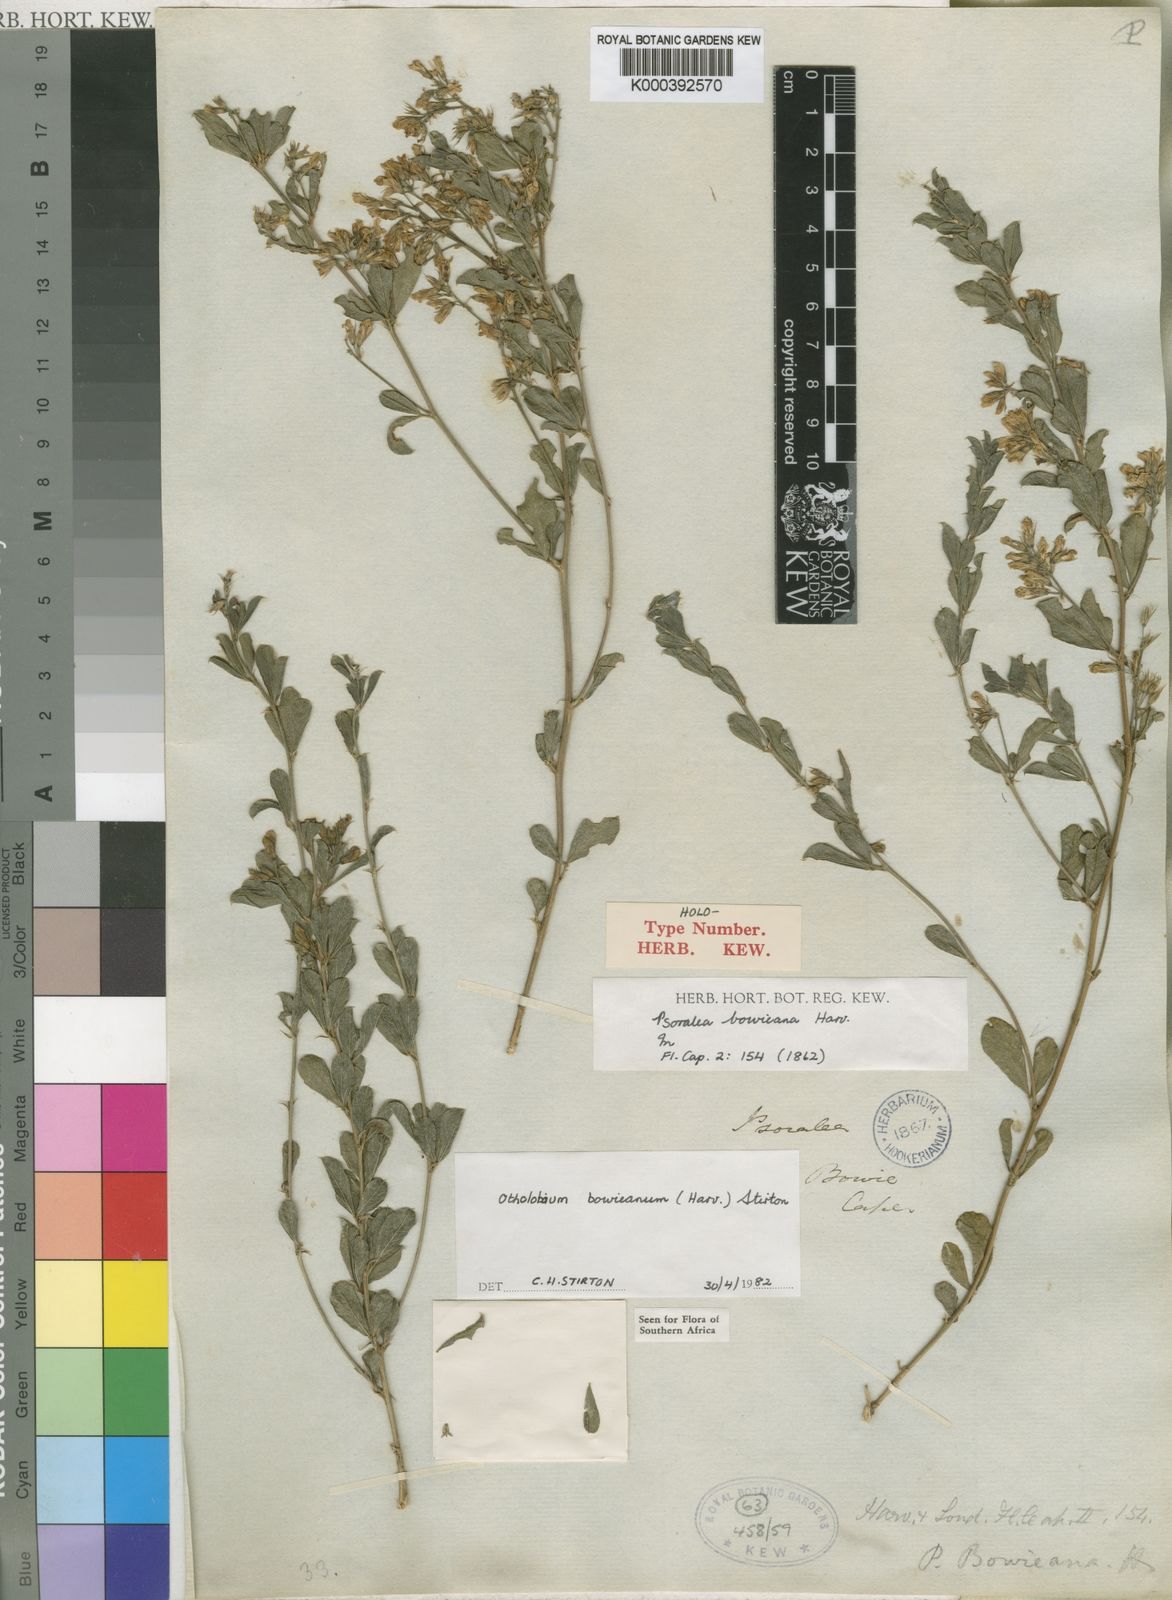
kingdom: Plantae
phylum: Tracheophyta
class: Magnoliopsida
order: Fabales
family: Fabaceae
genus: Psoralea
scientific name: Psoralea bowieana
